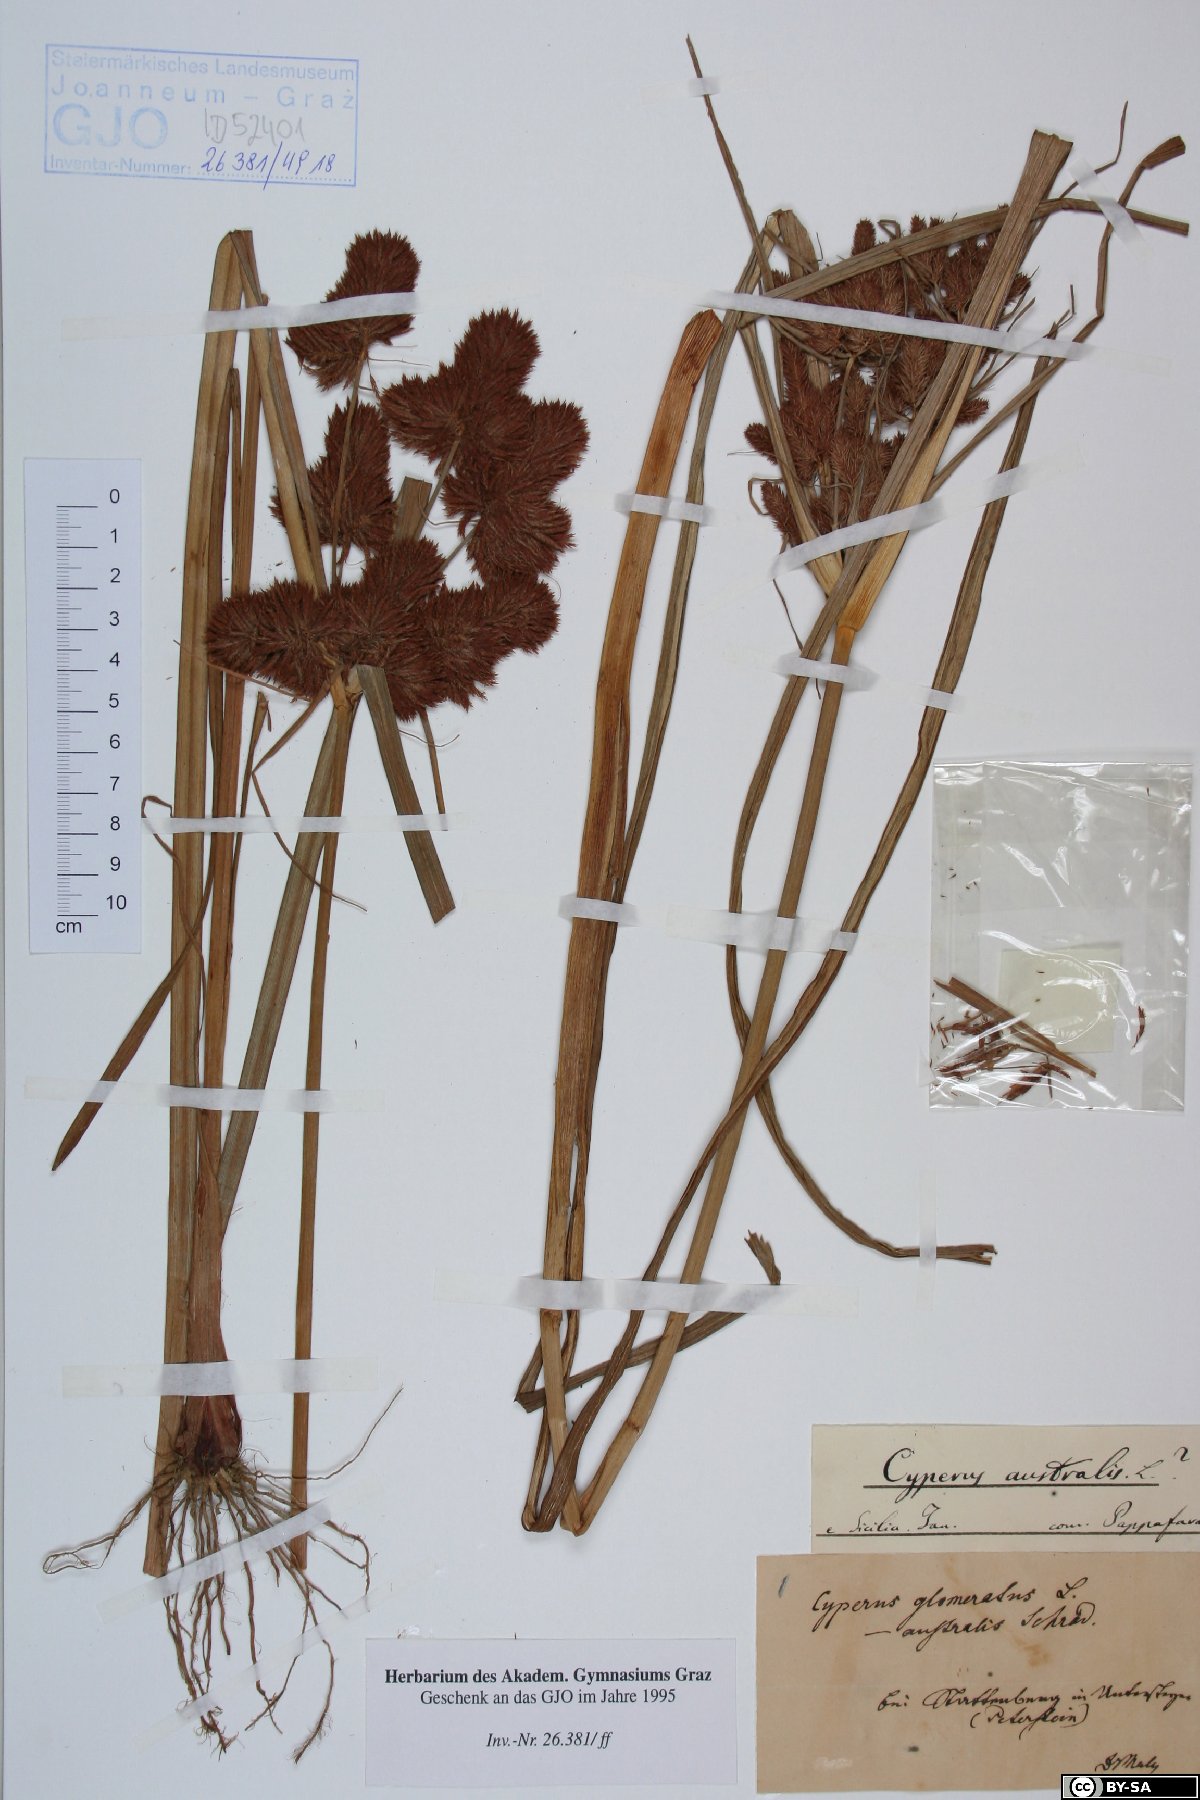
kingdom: Plantae
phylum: Tracheophyta
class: Liliopsida
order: Poales
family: Cyperaceae
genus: Cyperus
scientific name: Cyperus glomeratus
